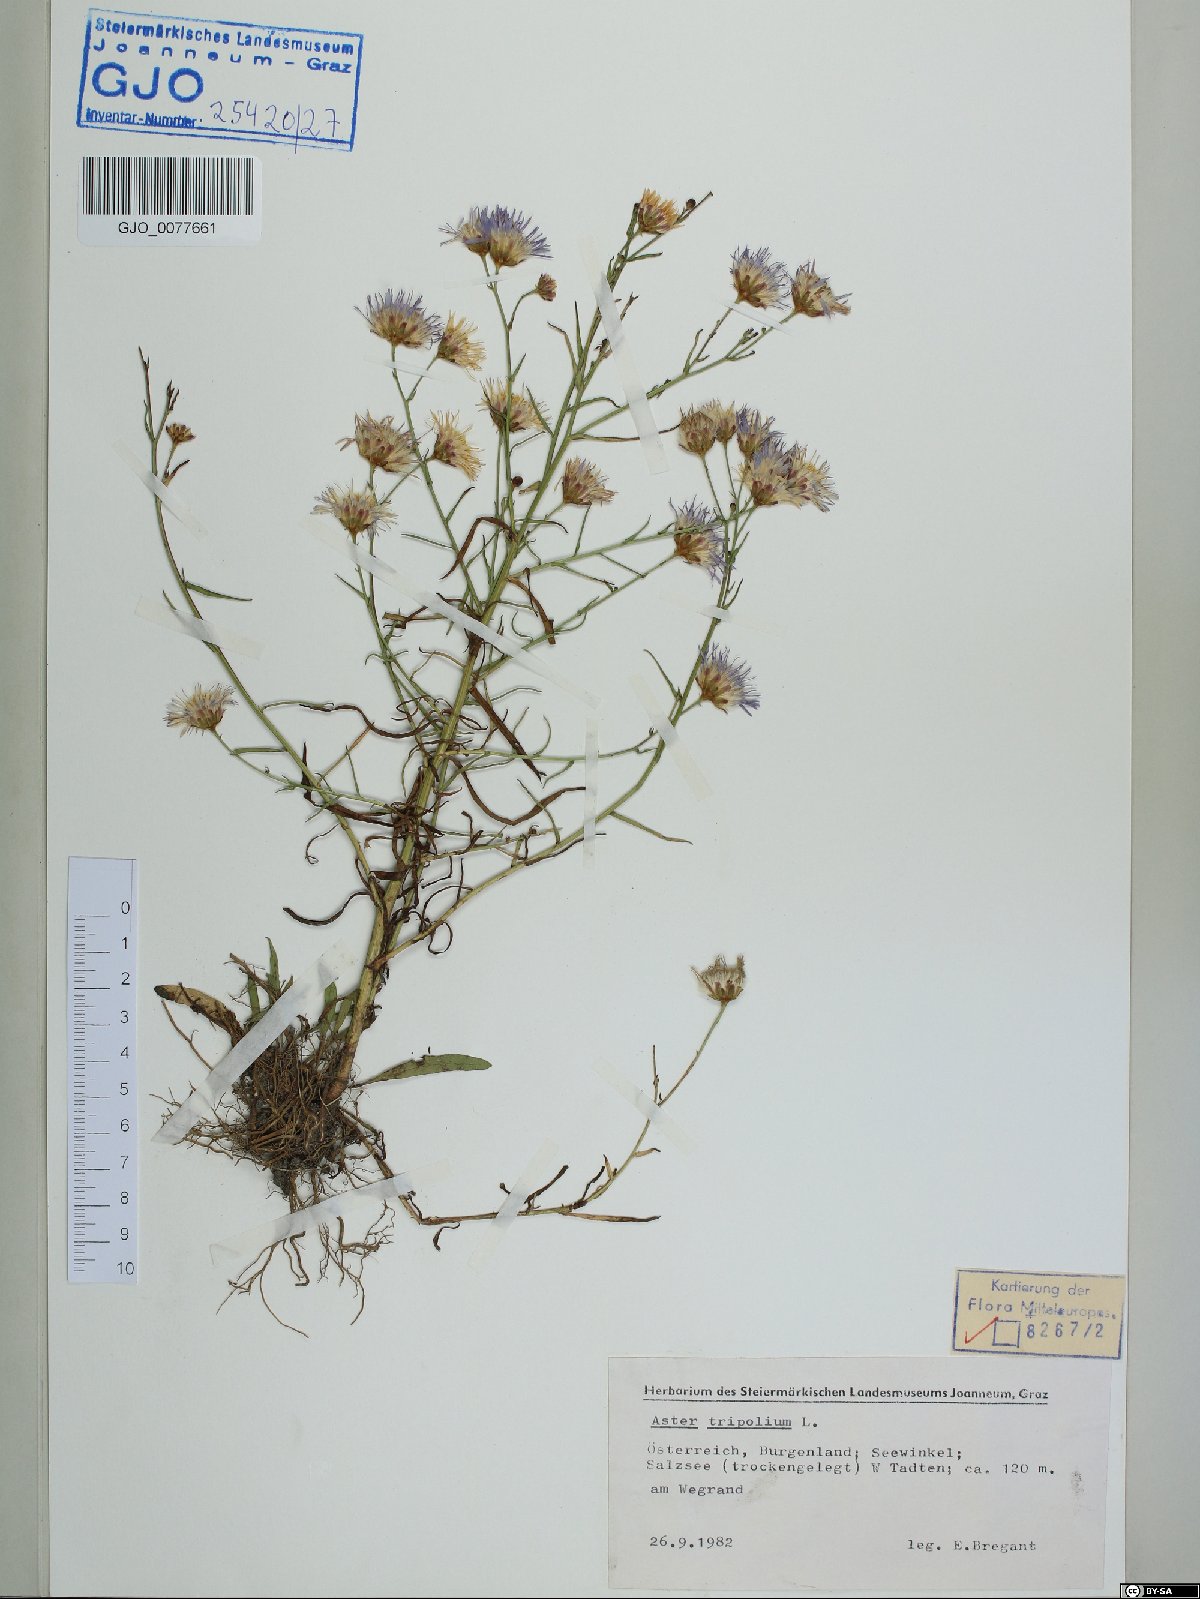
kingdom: Plantae
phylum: Tracheophyta
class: Magnoliopsida
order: Asterales
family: Asteraceae
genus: Tripolium
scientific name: Tripolium pannonicum
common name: Sea aster
